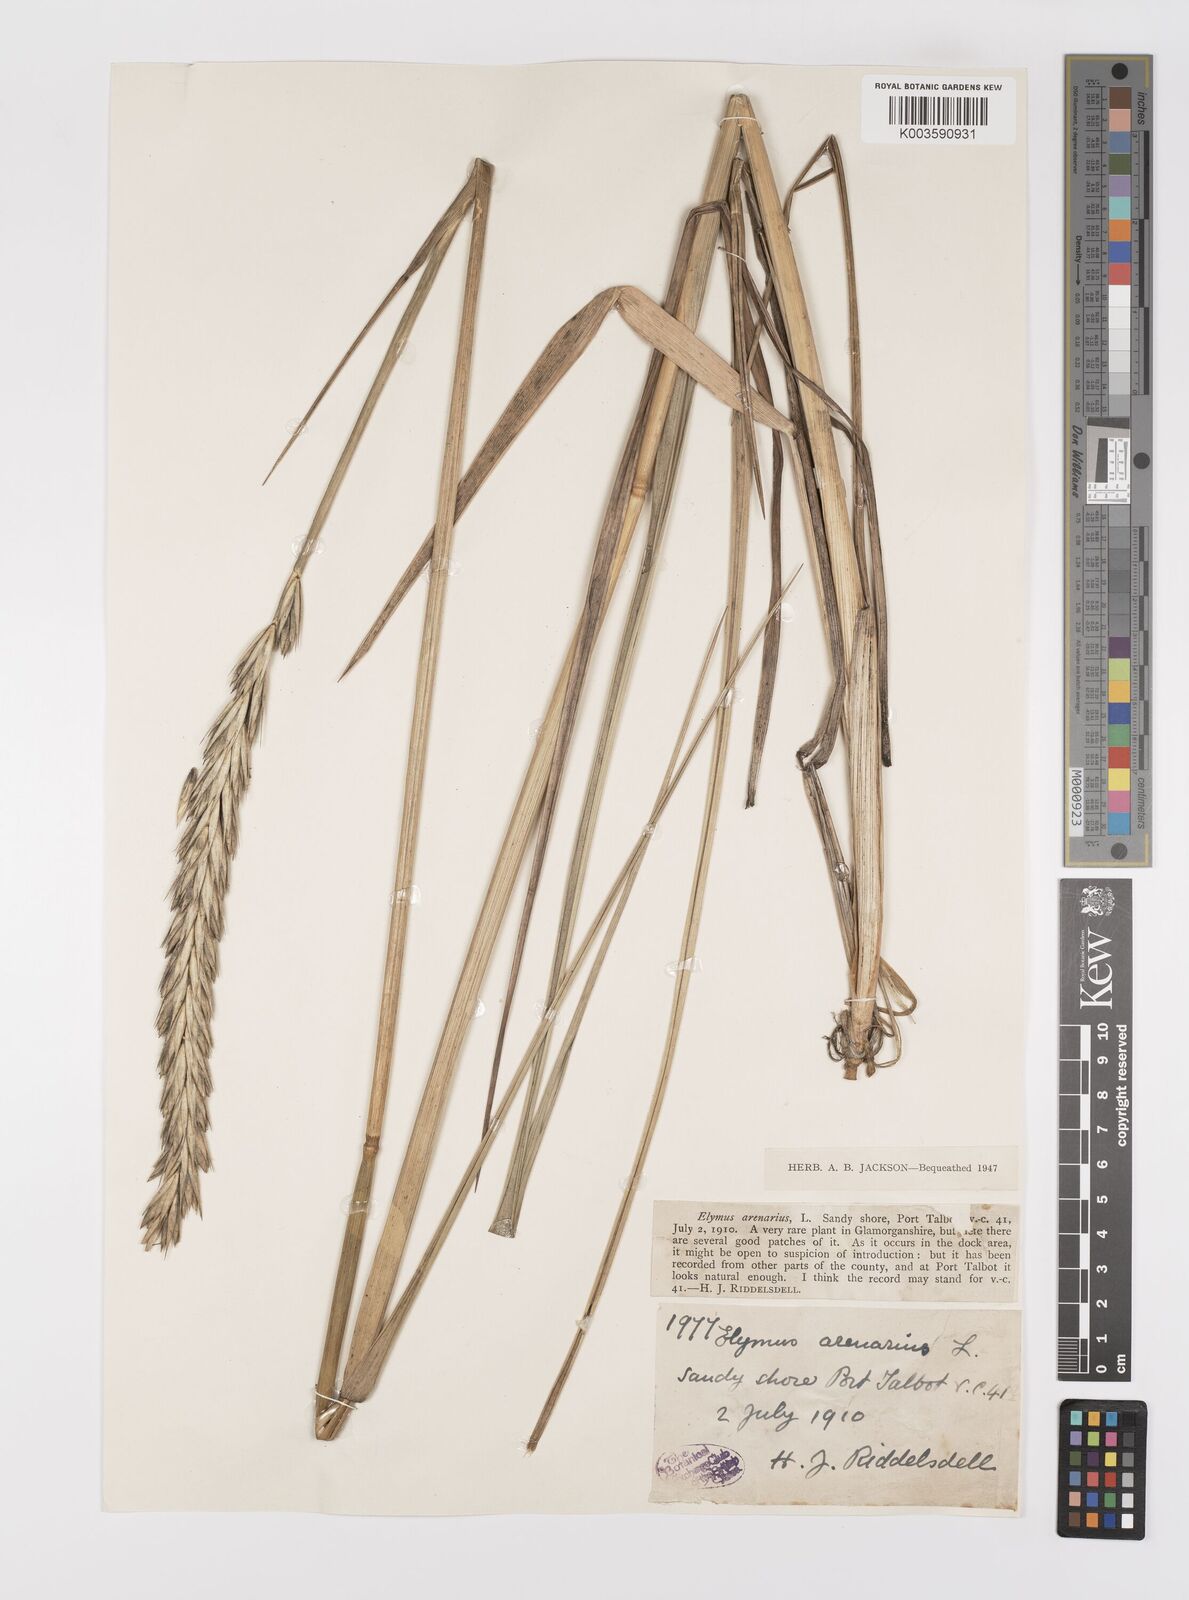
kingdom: Plantae
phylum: Tracheophyta
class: Liliopsida
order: Poales
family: Poaceae
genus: Leymus
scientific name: Leymus
